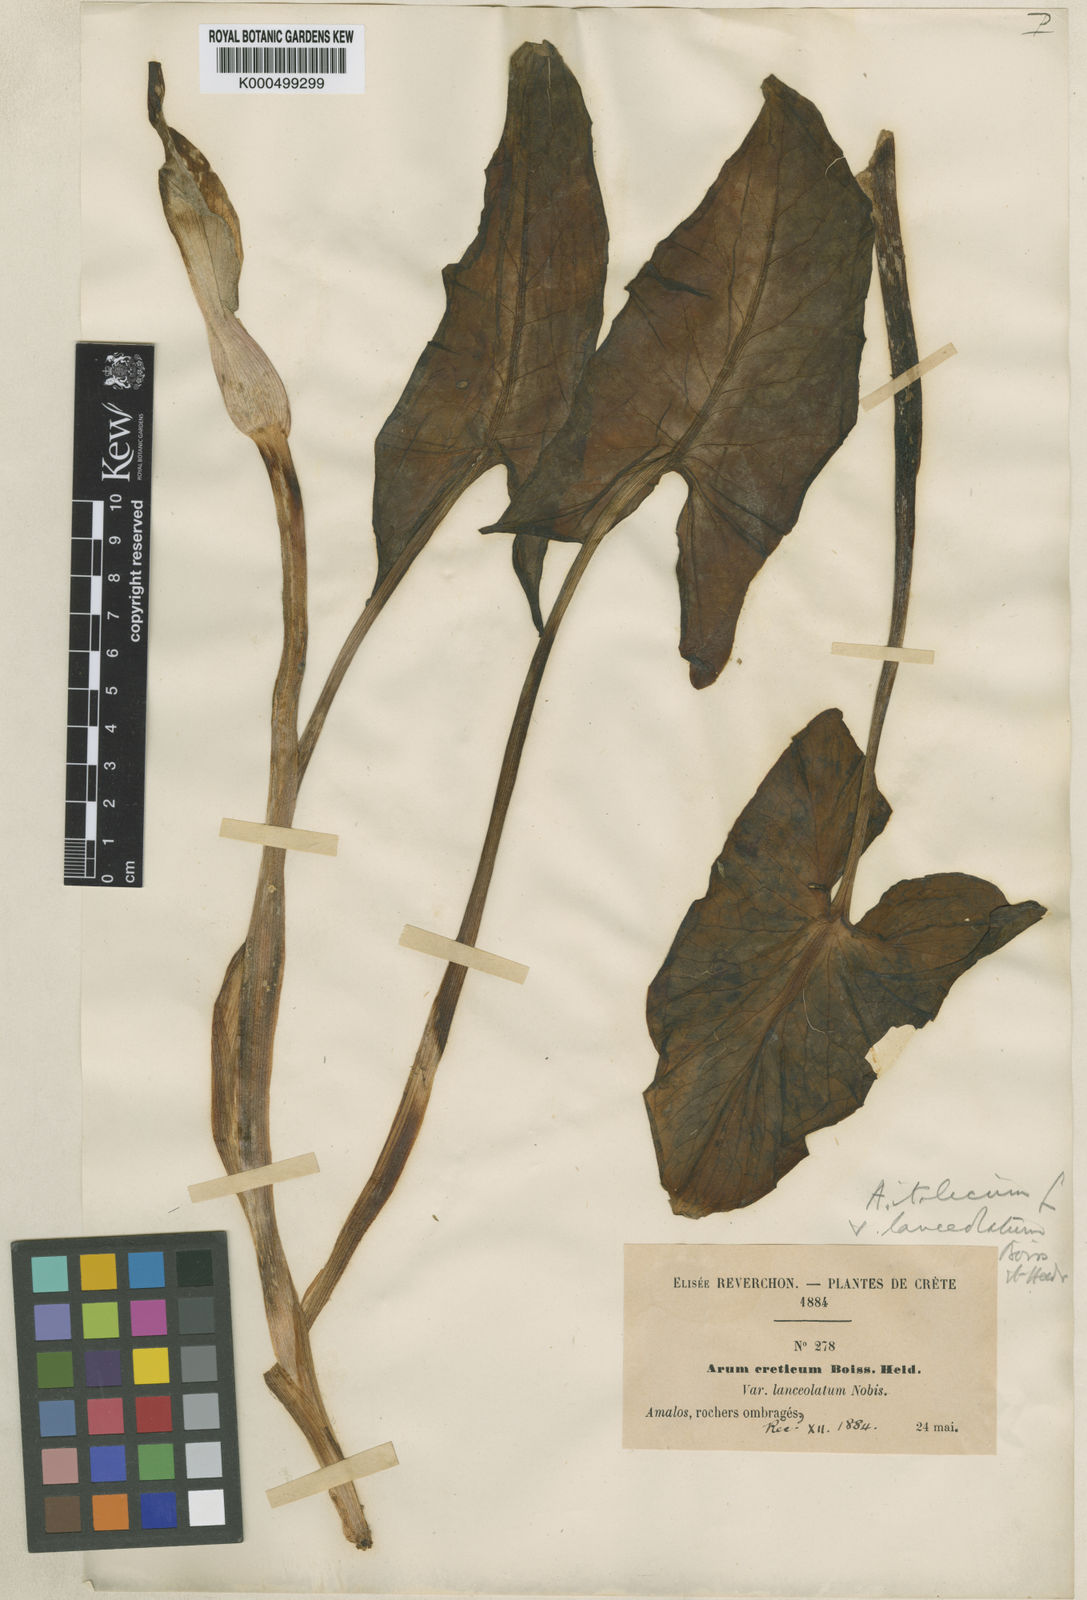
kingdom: Plantae
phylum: Tracheophyta
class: Liliopsida
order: Alismatales
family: Araceae
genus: Arum
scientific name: Arum cylindraceum
